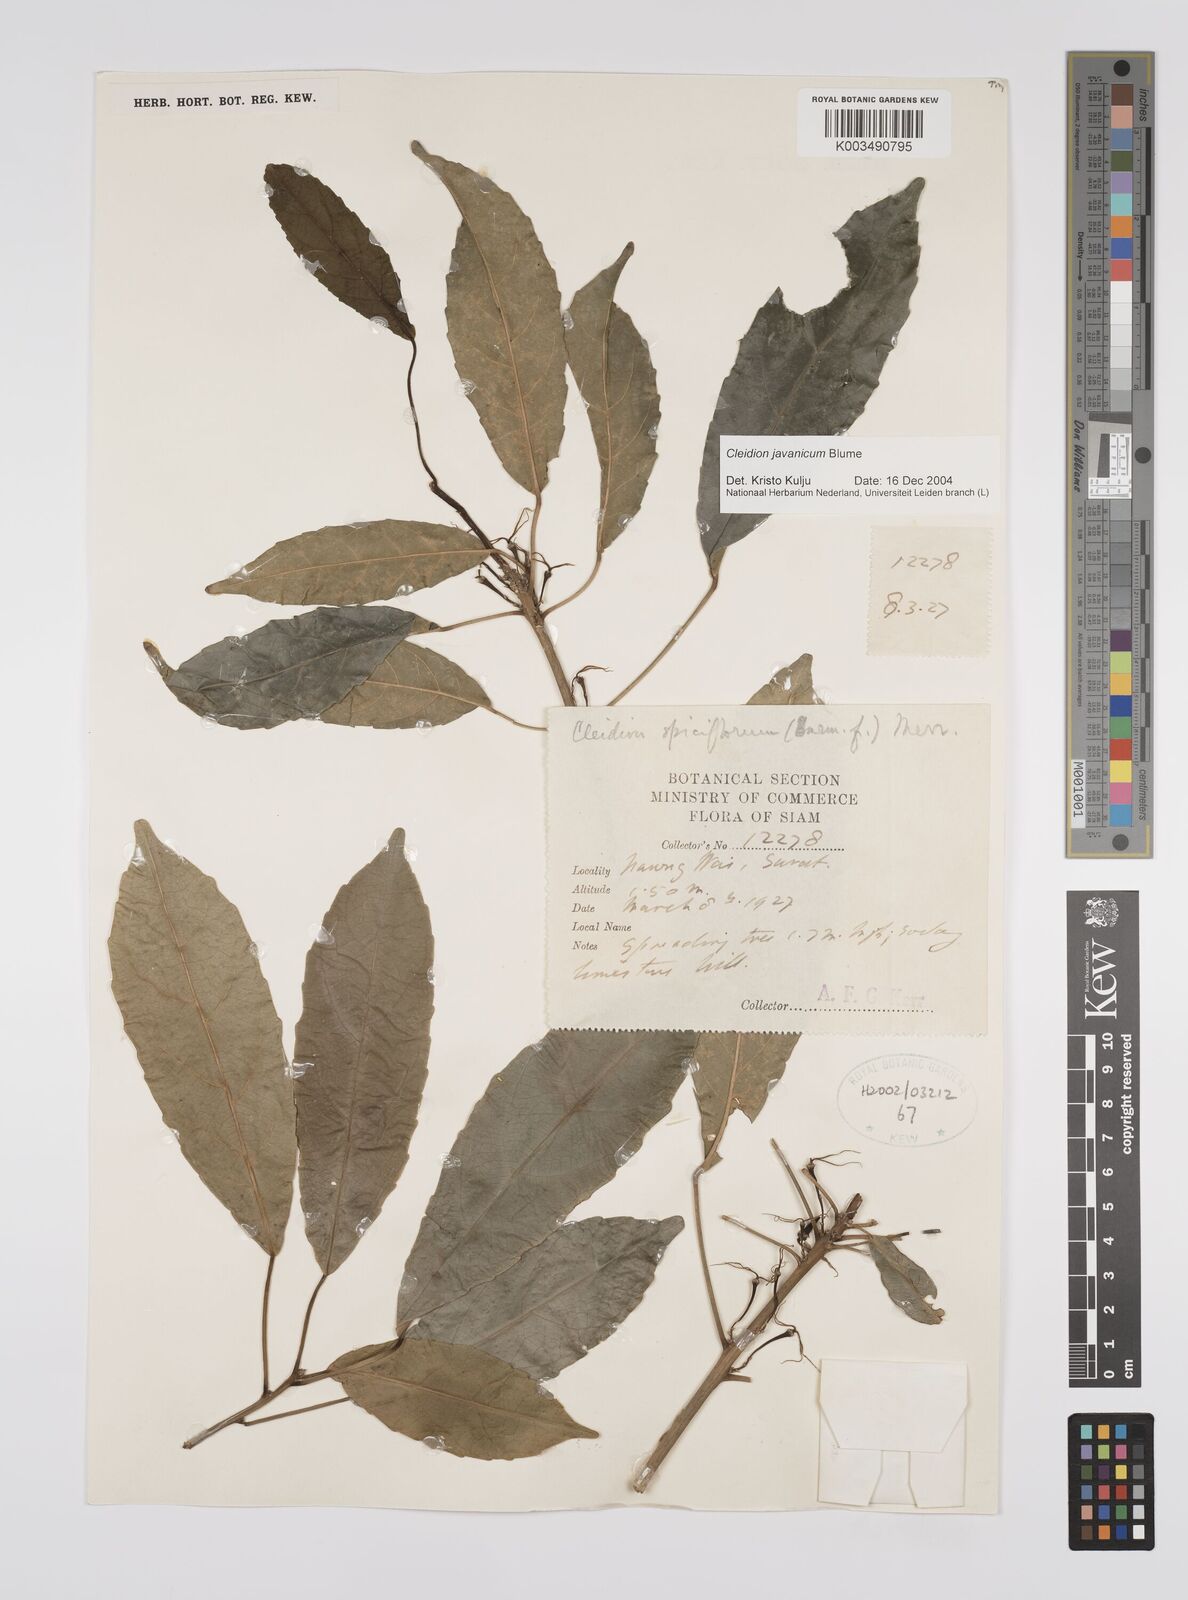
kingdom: Plantae
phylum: Tracheophyta
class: Magnoliopsida
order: Malpighiales
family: Euphorbiaceae
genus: Cleidion
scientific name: Cleidion javanicum
